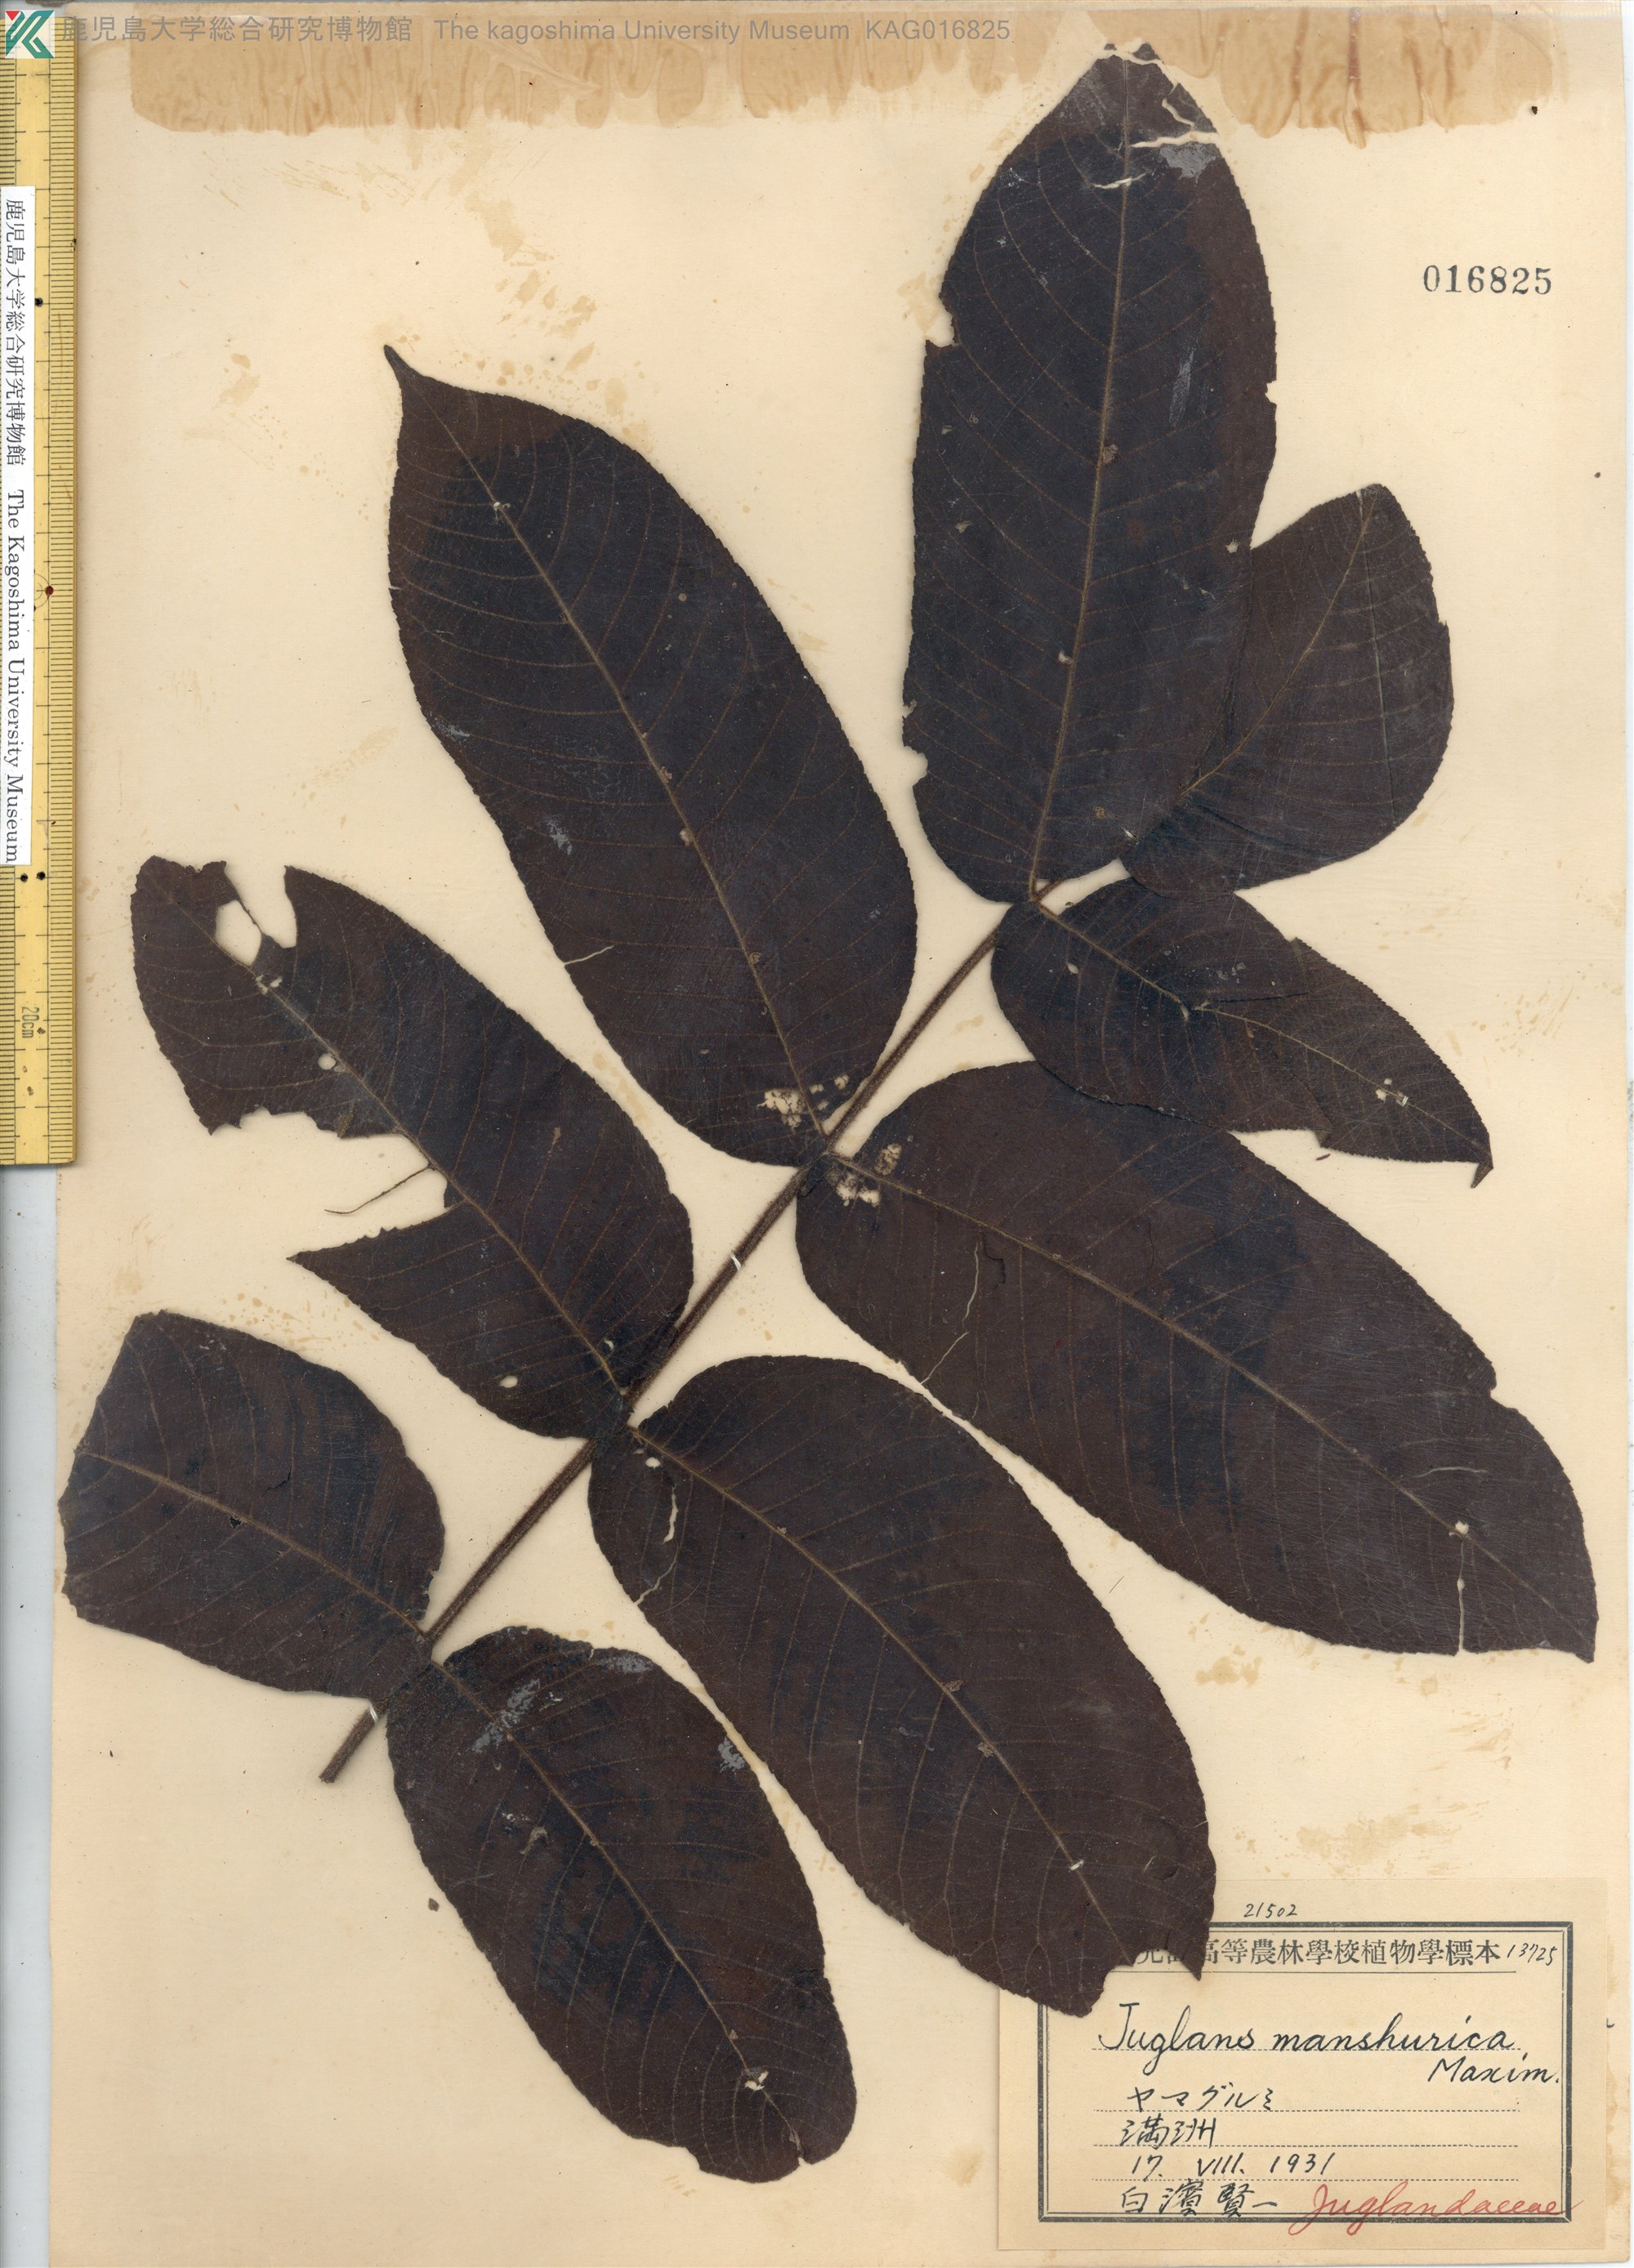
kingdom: Plantae
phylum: Tracheophyta
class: Magnoliopsida
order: Fagales
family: Juglandaceae
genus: Juglans
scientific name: Juglans ailantifolia
